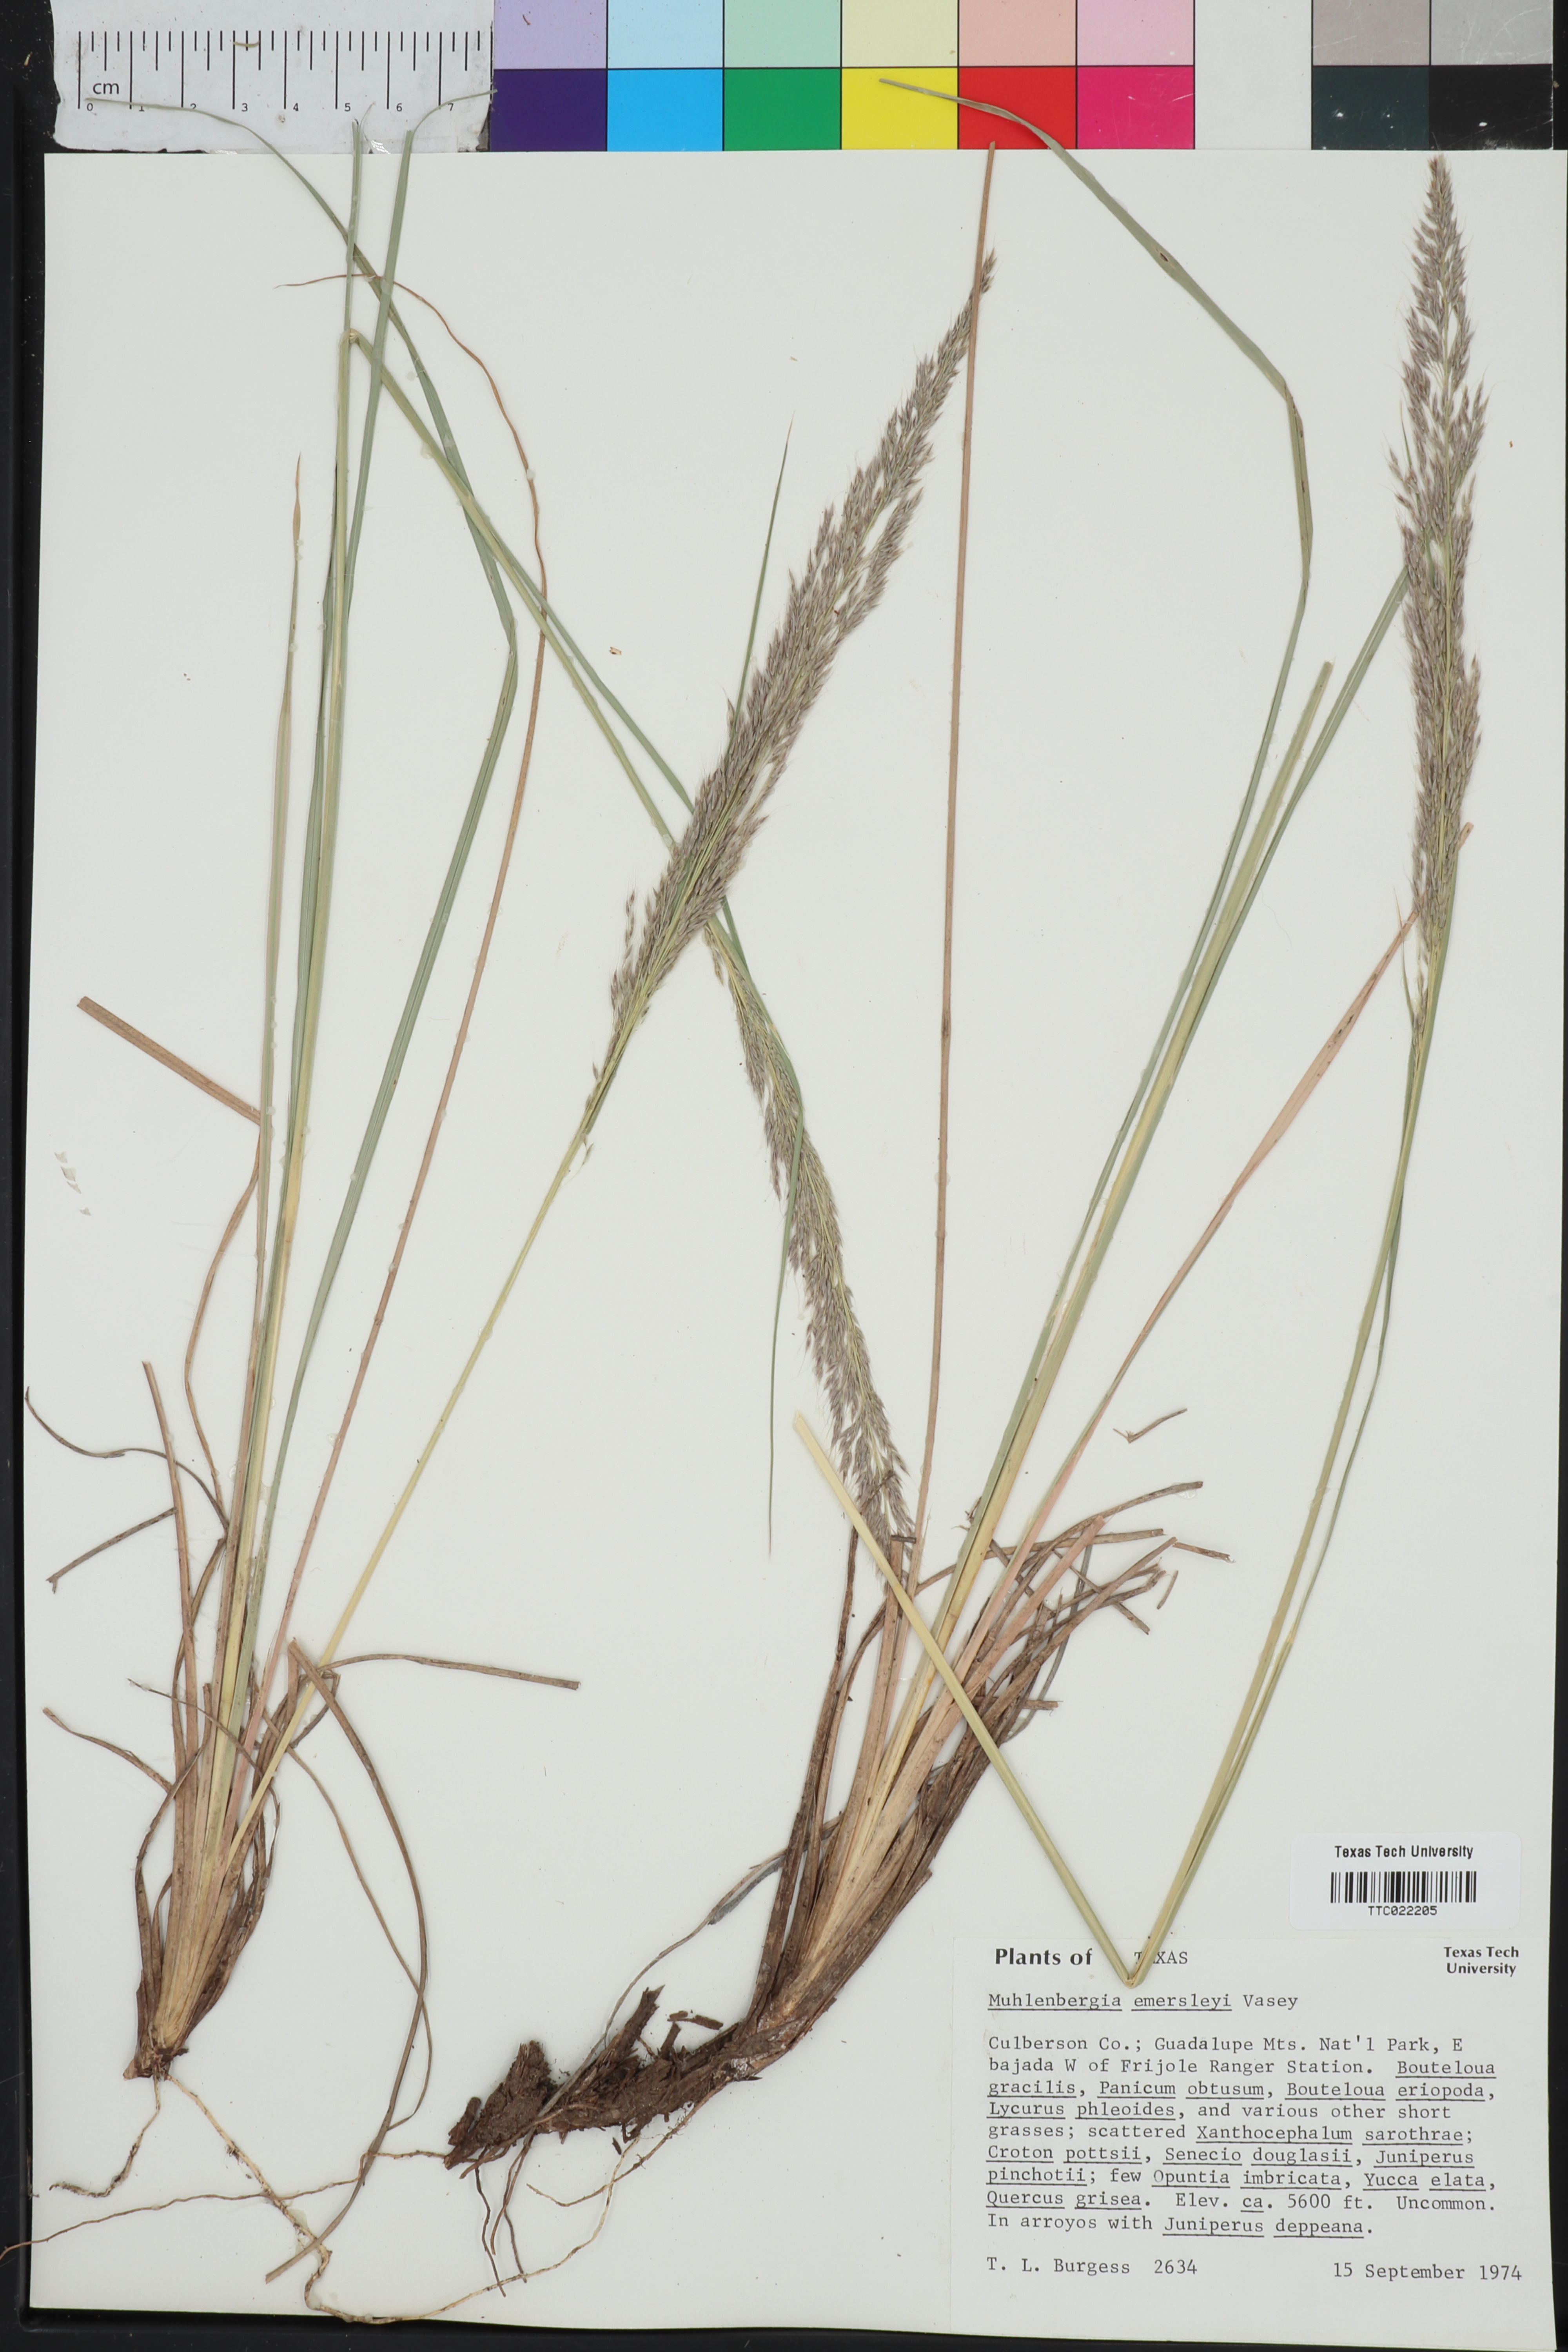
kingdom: Plantae
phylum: Tracheophyta
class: Liliopsida
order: Poales
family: Poaceae
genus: Muhlenbergia
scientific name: Muhlenbergia emersleyi
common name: Bull grass
